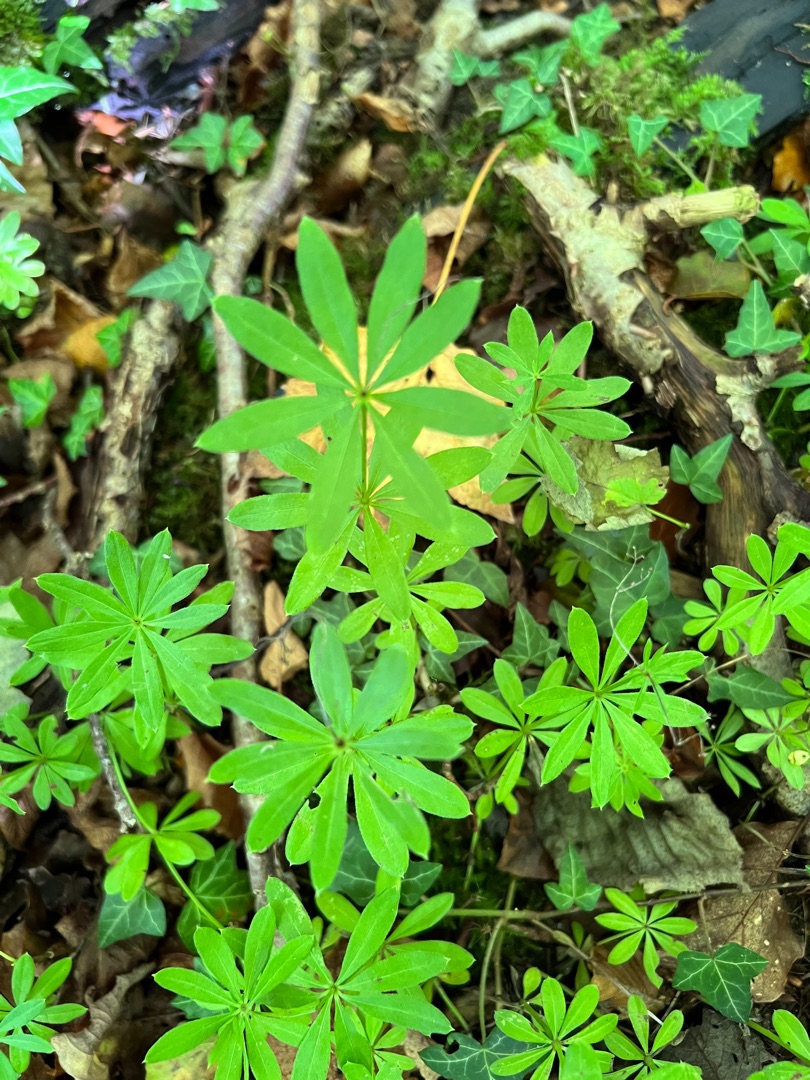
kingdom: Plantae
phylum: Tracheophyta
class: Magnoliopsida
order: Gentianales
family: Rubiaceae
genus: Galium
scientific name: Galium odoratum
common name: Skovmærke
